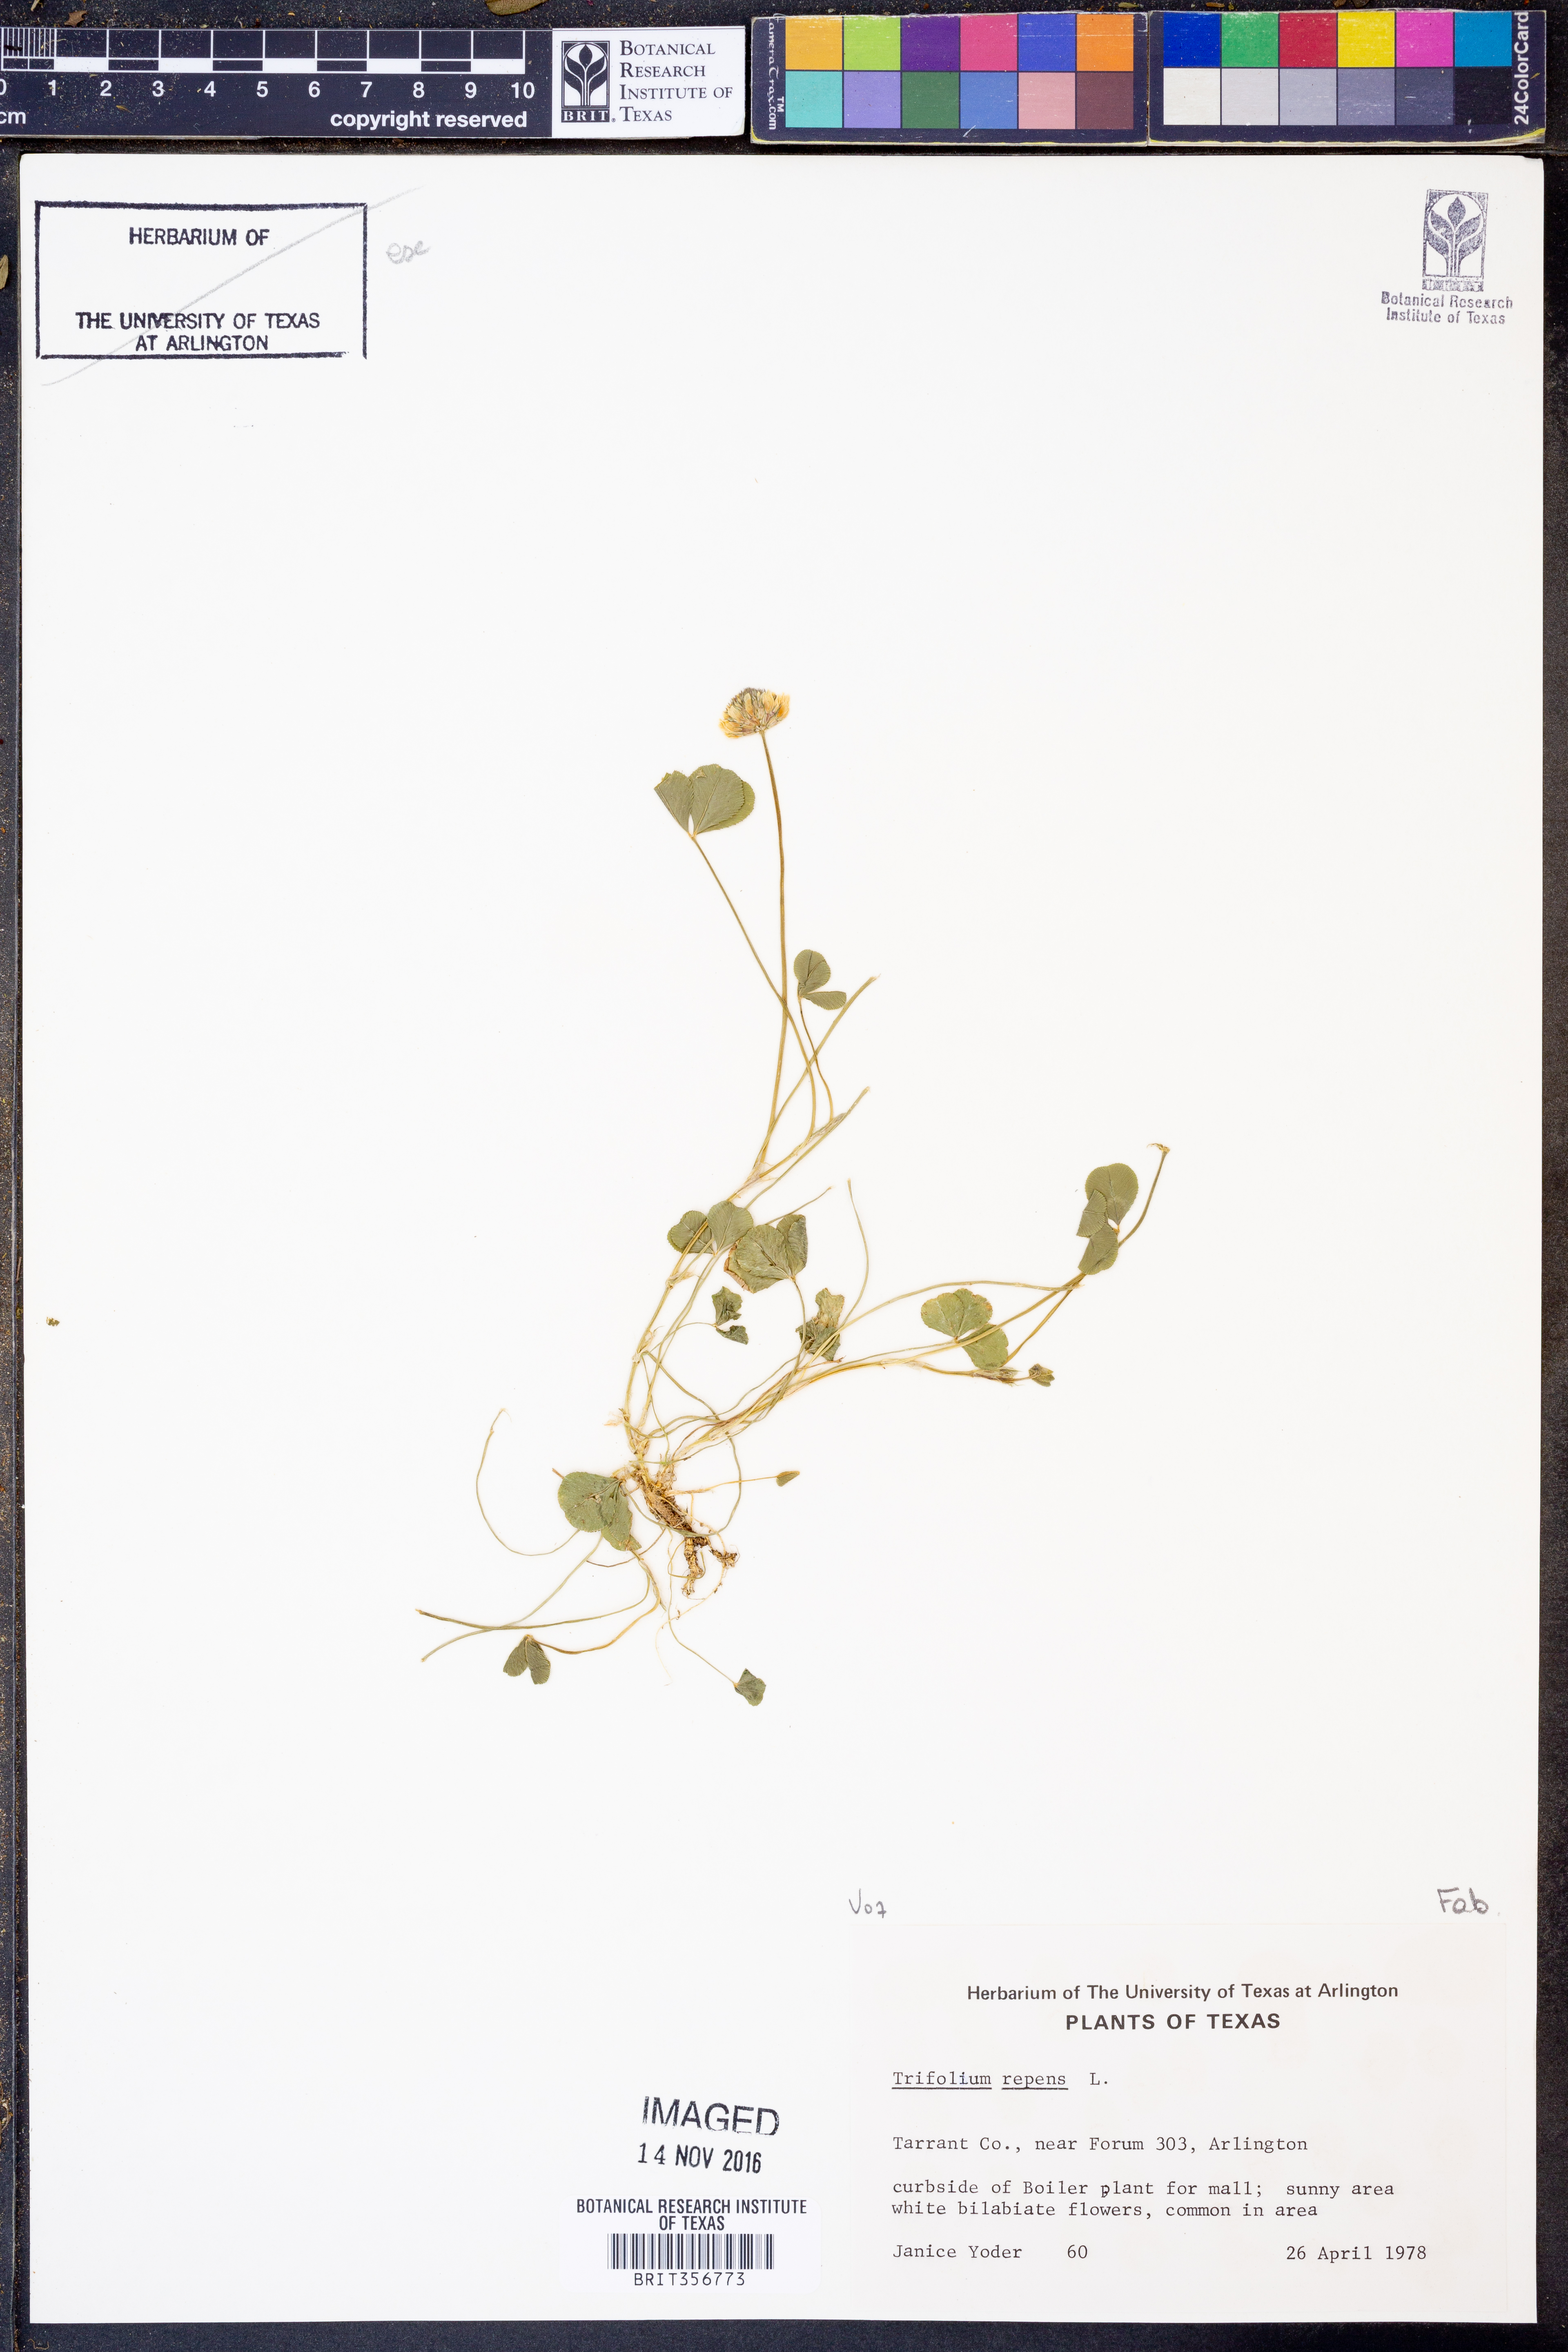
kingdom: Plantae
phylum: Tracheophyta
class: Magnoliopsida
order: Fabales
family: Fabaceae
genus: Trifolium
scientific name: Trifolium repens
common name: White clover
